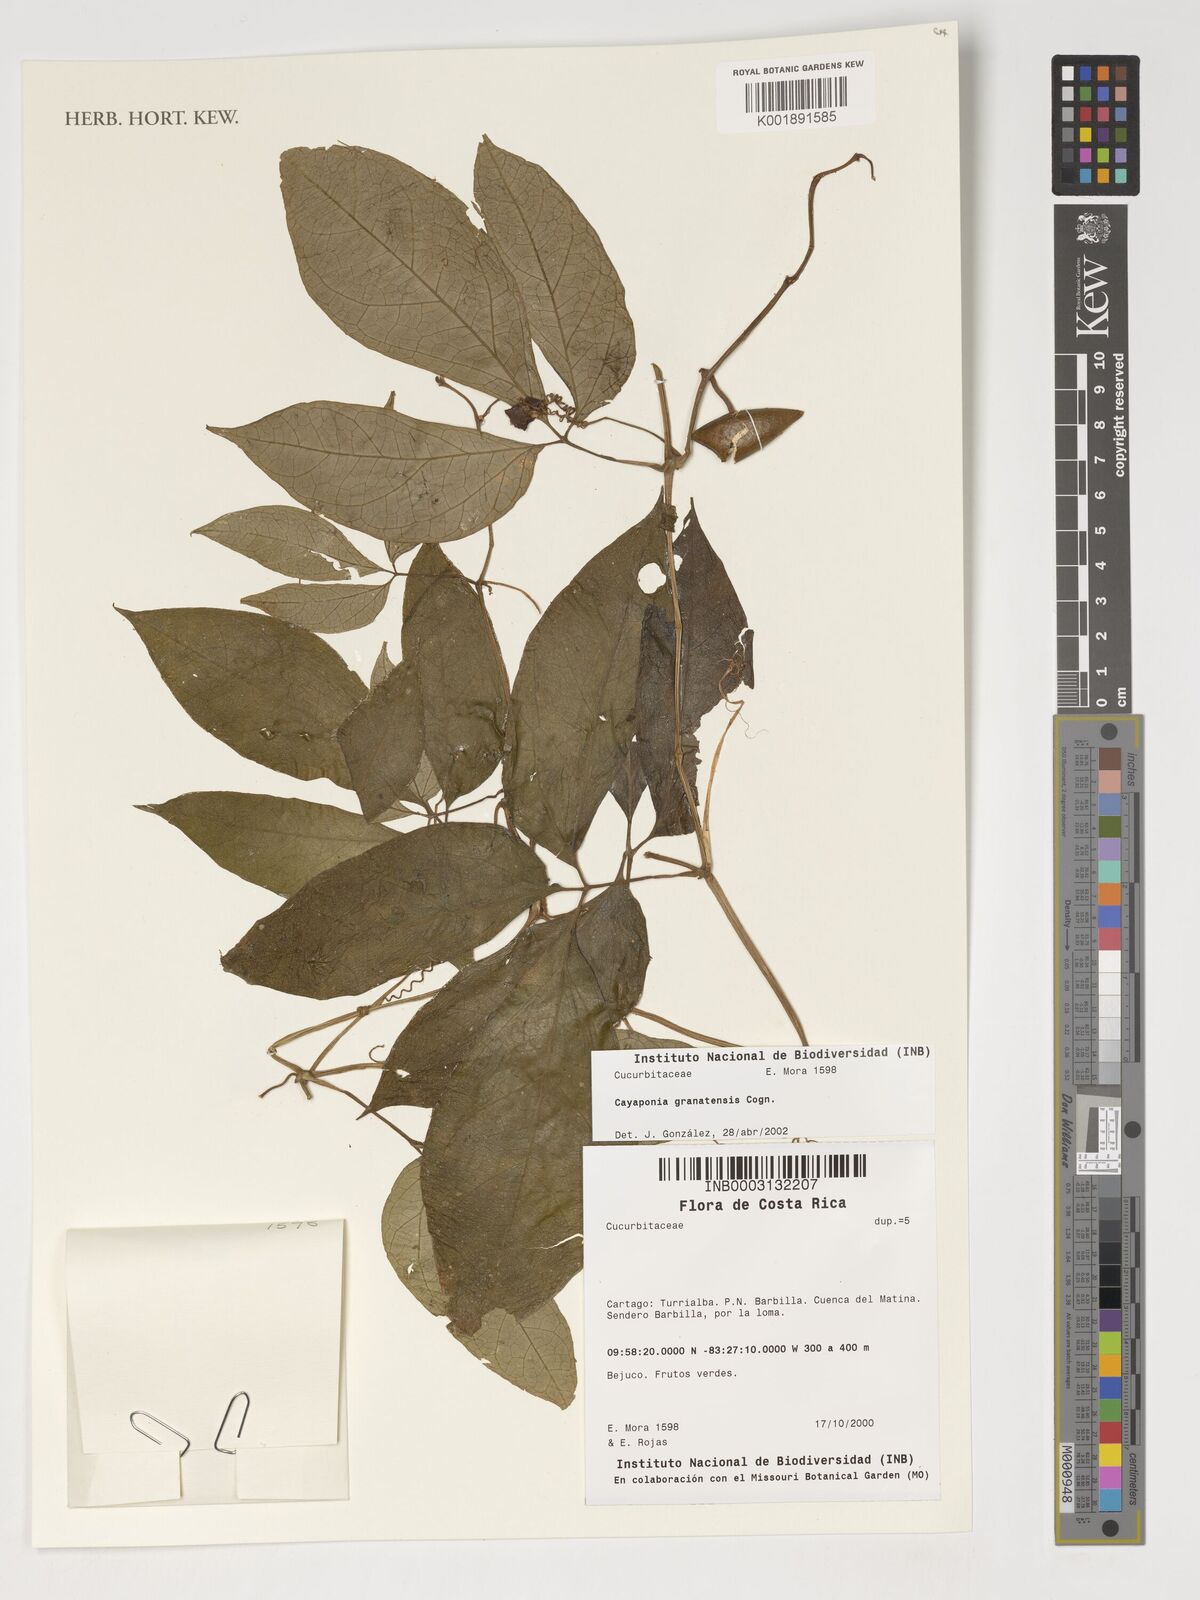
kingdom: Plantae
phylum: Tracheophyta
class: Magnoliopsida
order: Cucurbitales
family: Cucurbitaceae
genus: Cayaponia
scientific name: Cayaponia granatensis
